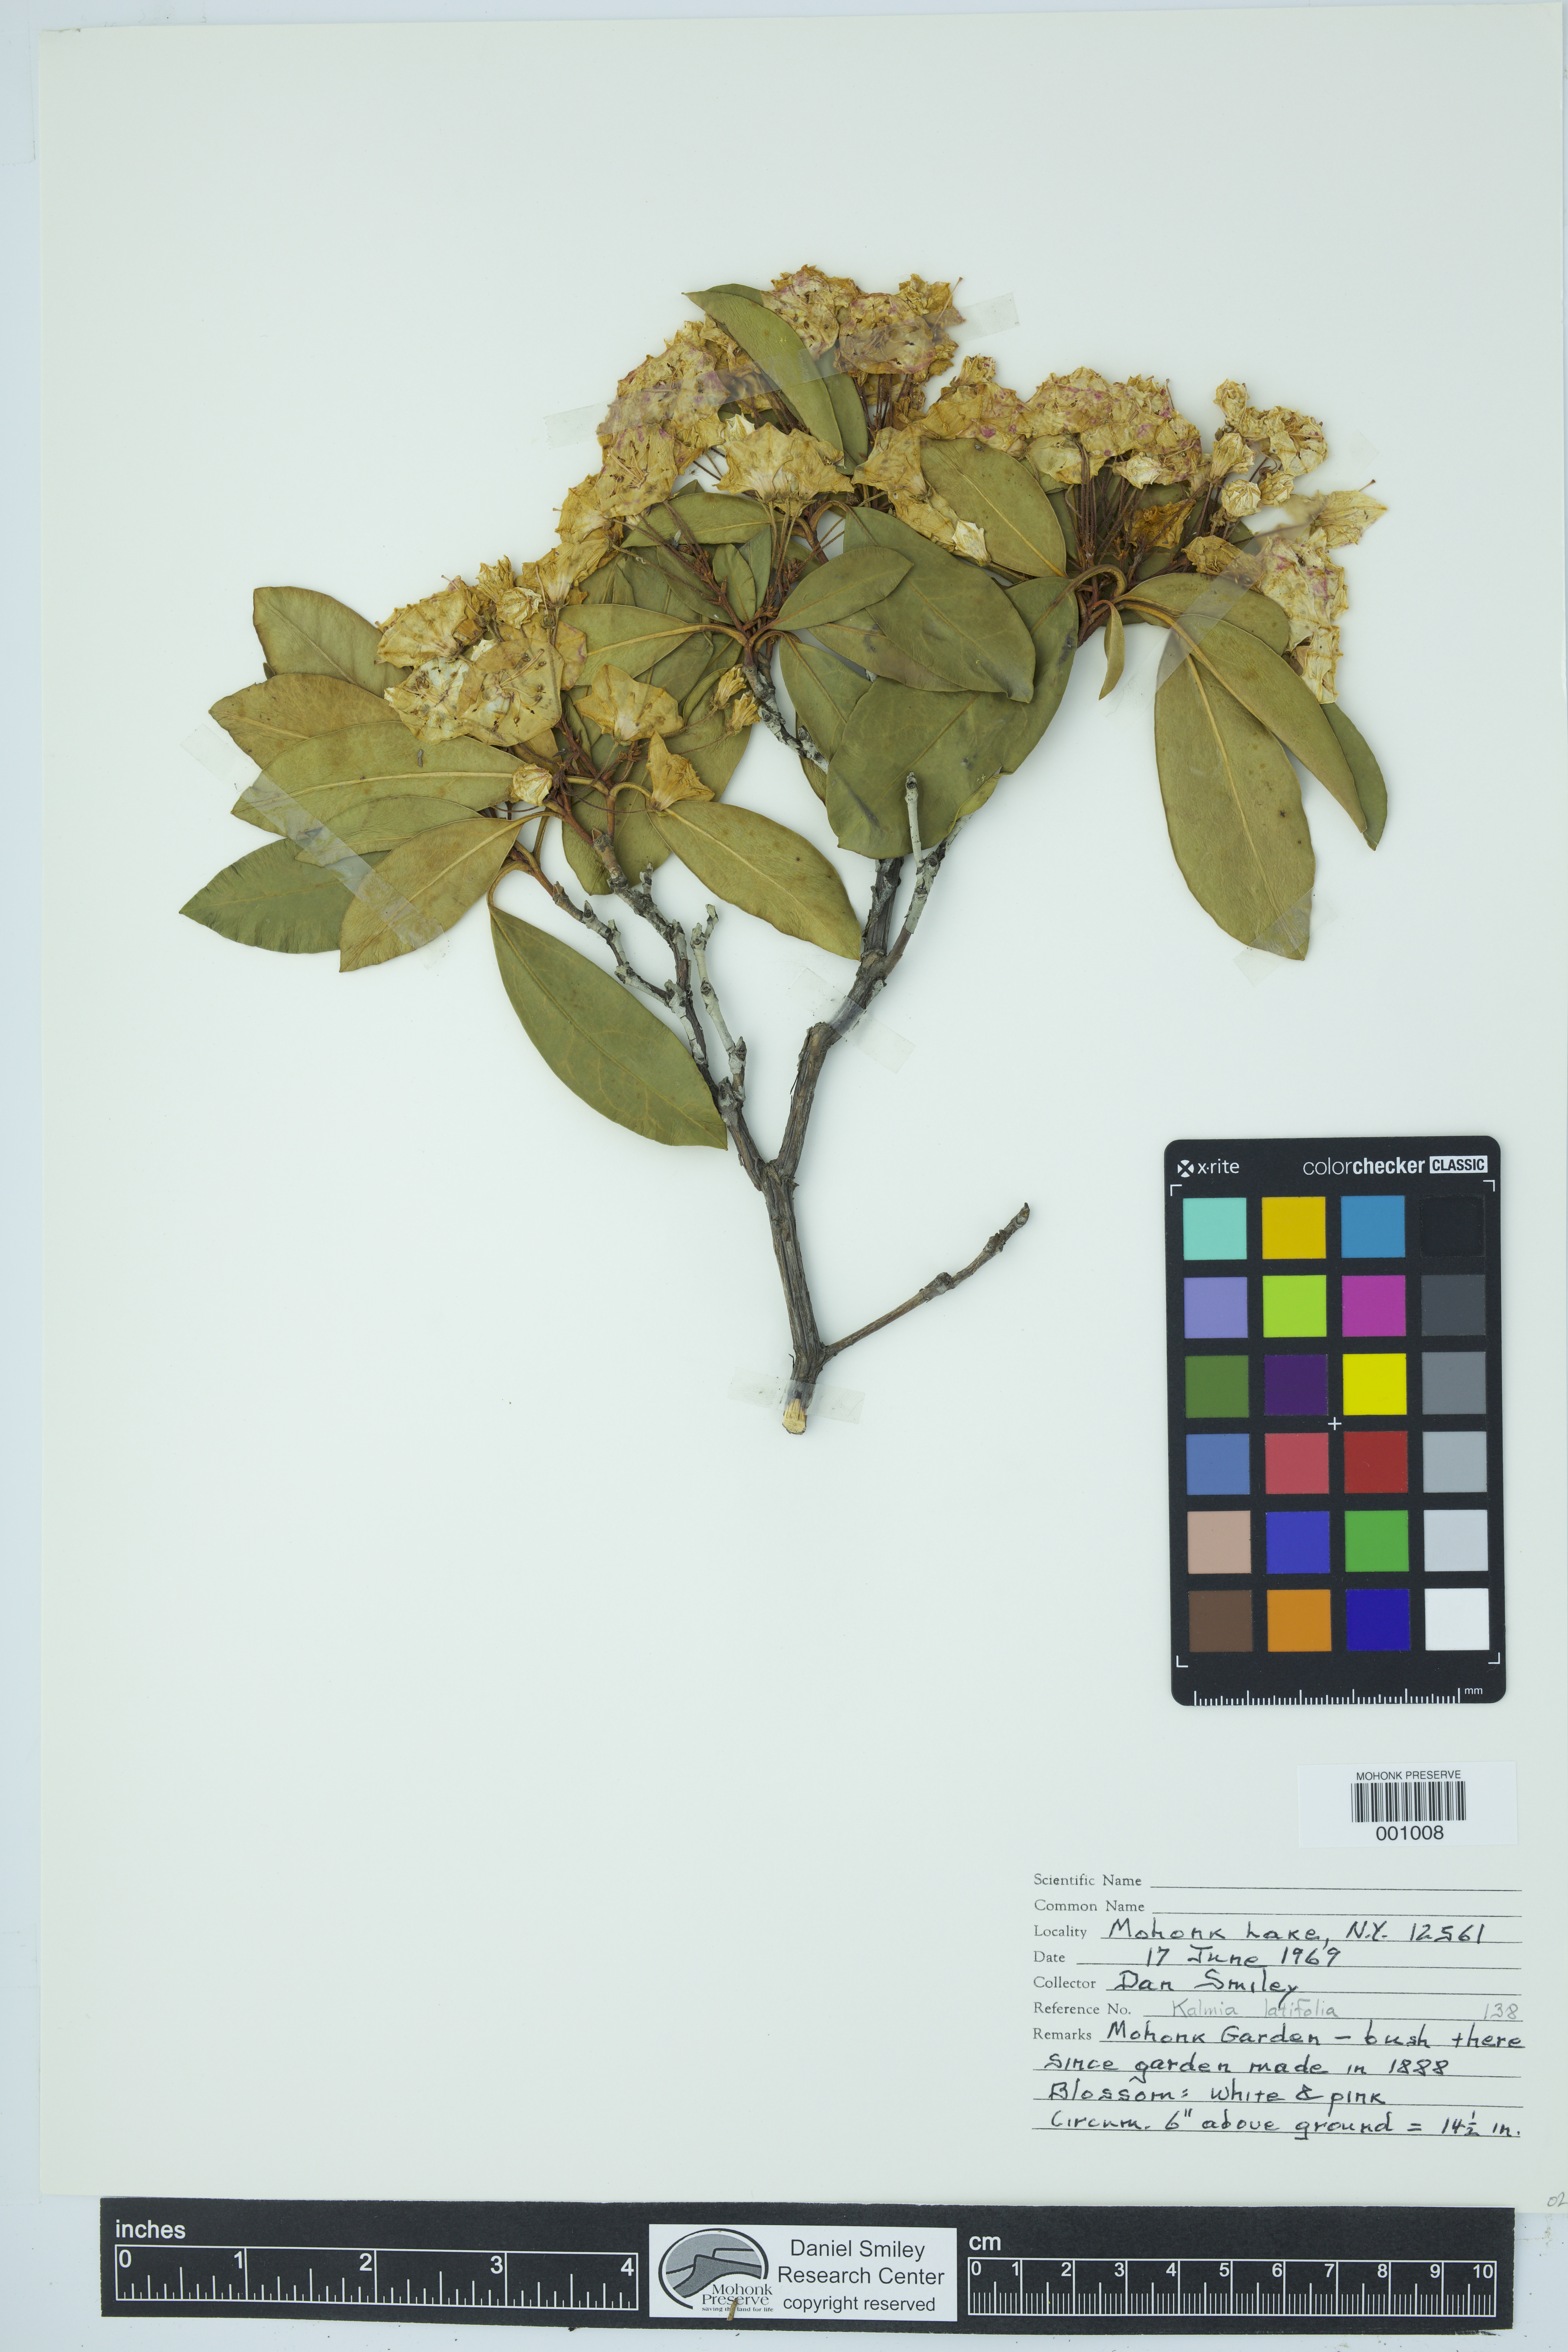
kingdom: Plantae
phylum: Tracheophyta
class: Magnoliopsida
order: Ericales
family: Ericaceae
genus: Kalmia
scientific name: Kalmia latifolia
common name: Mountain-laurel
